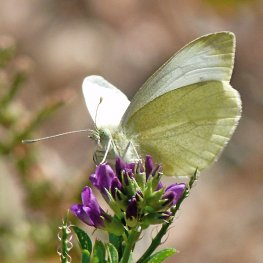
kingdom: Animalia
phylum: Arthropoda
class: Insecta
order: Lepidoptera
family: Pieridae
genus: Pieris
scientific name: Pieris rapae
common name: Cabbage White
